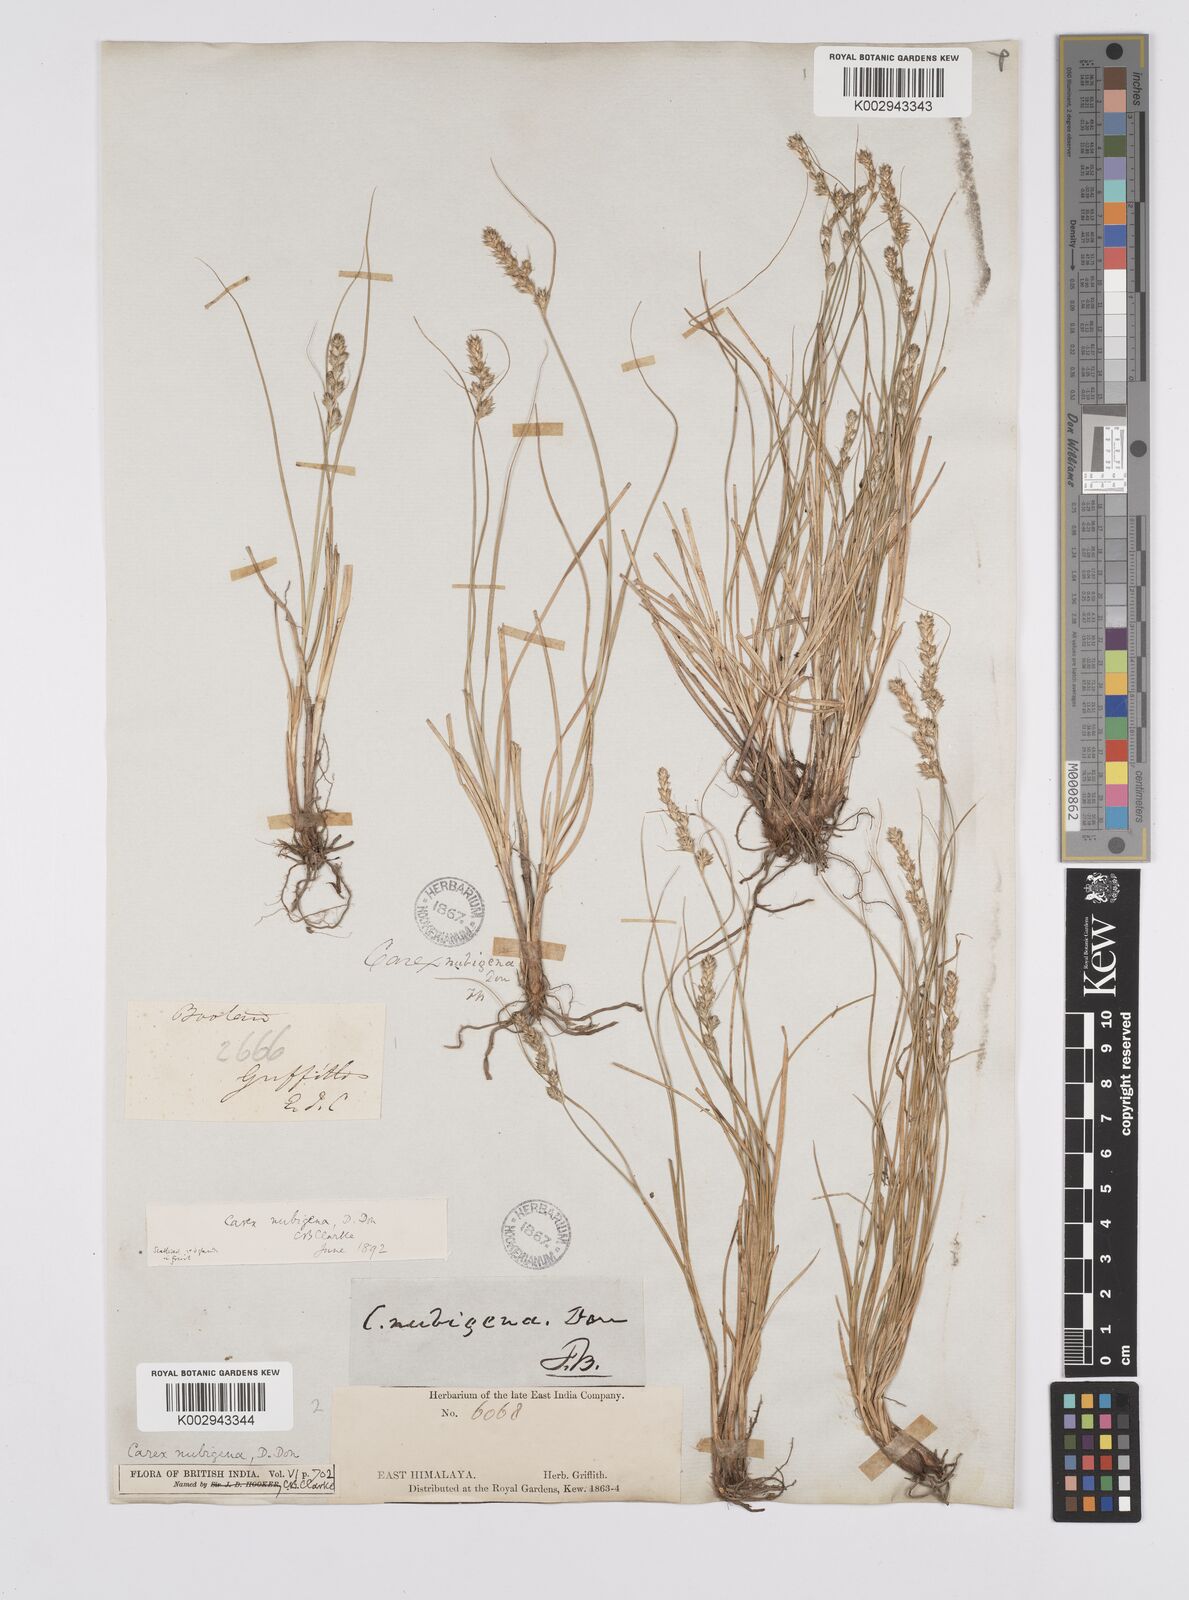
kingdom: Plantae
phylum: Tracheophyta
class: Liliopsida
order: Poales
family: Cyperaceae
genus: Carex
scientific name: Carex nubigena
